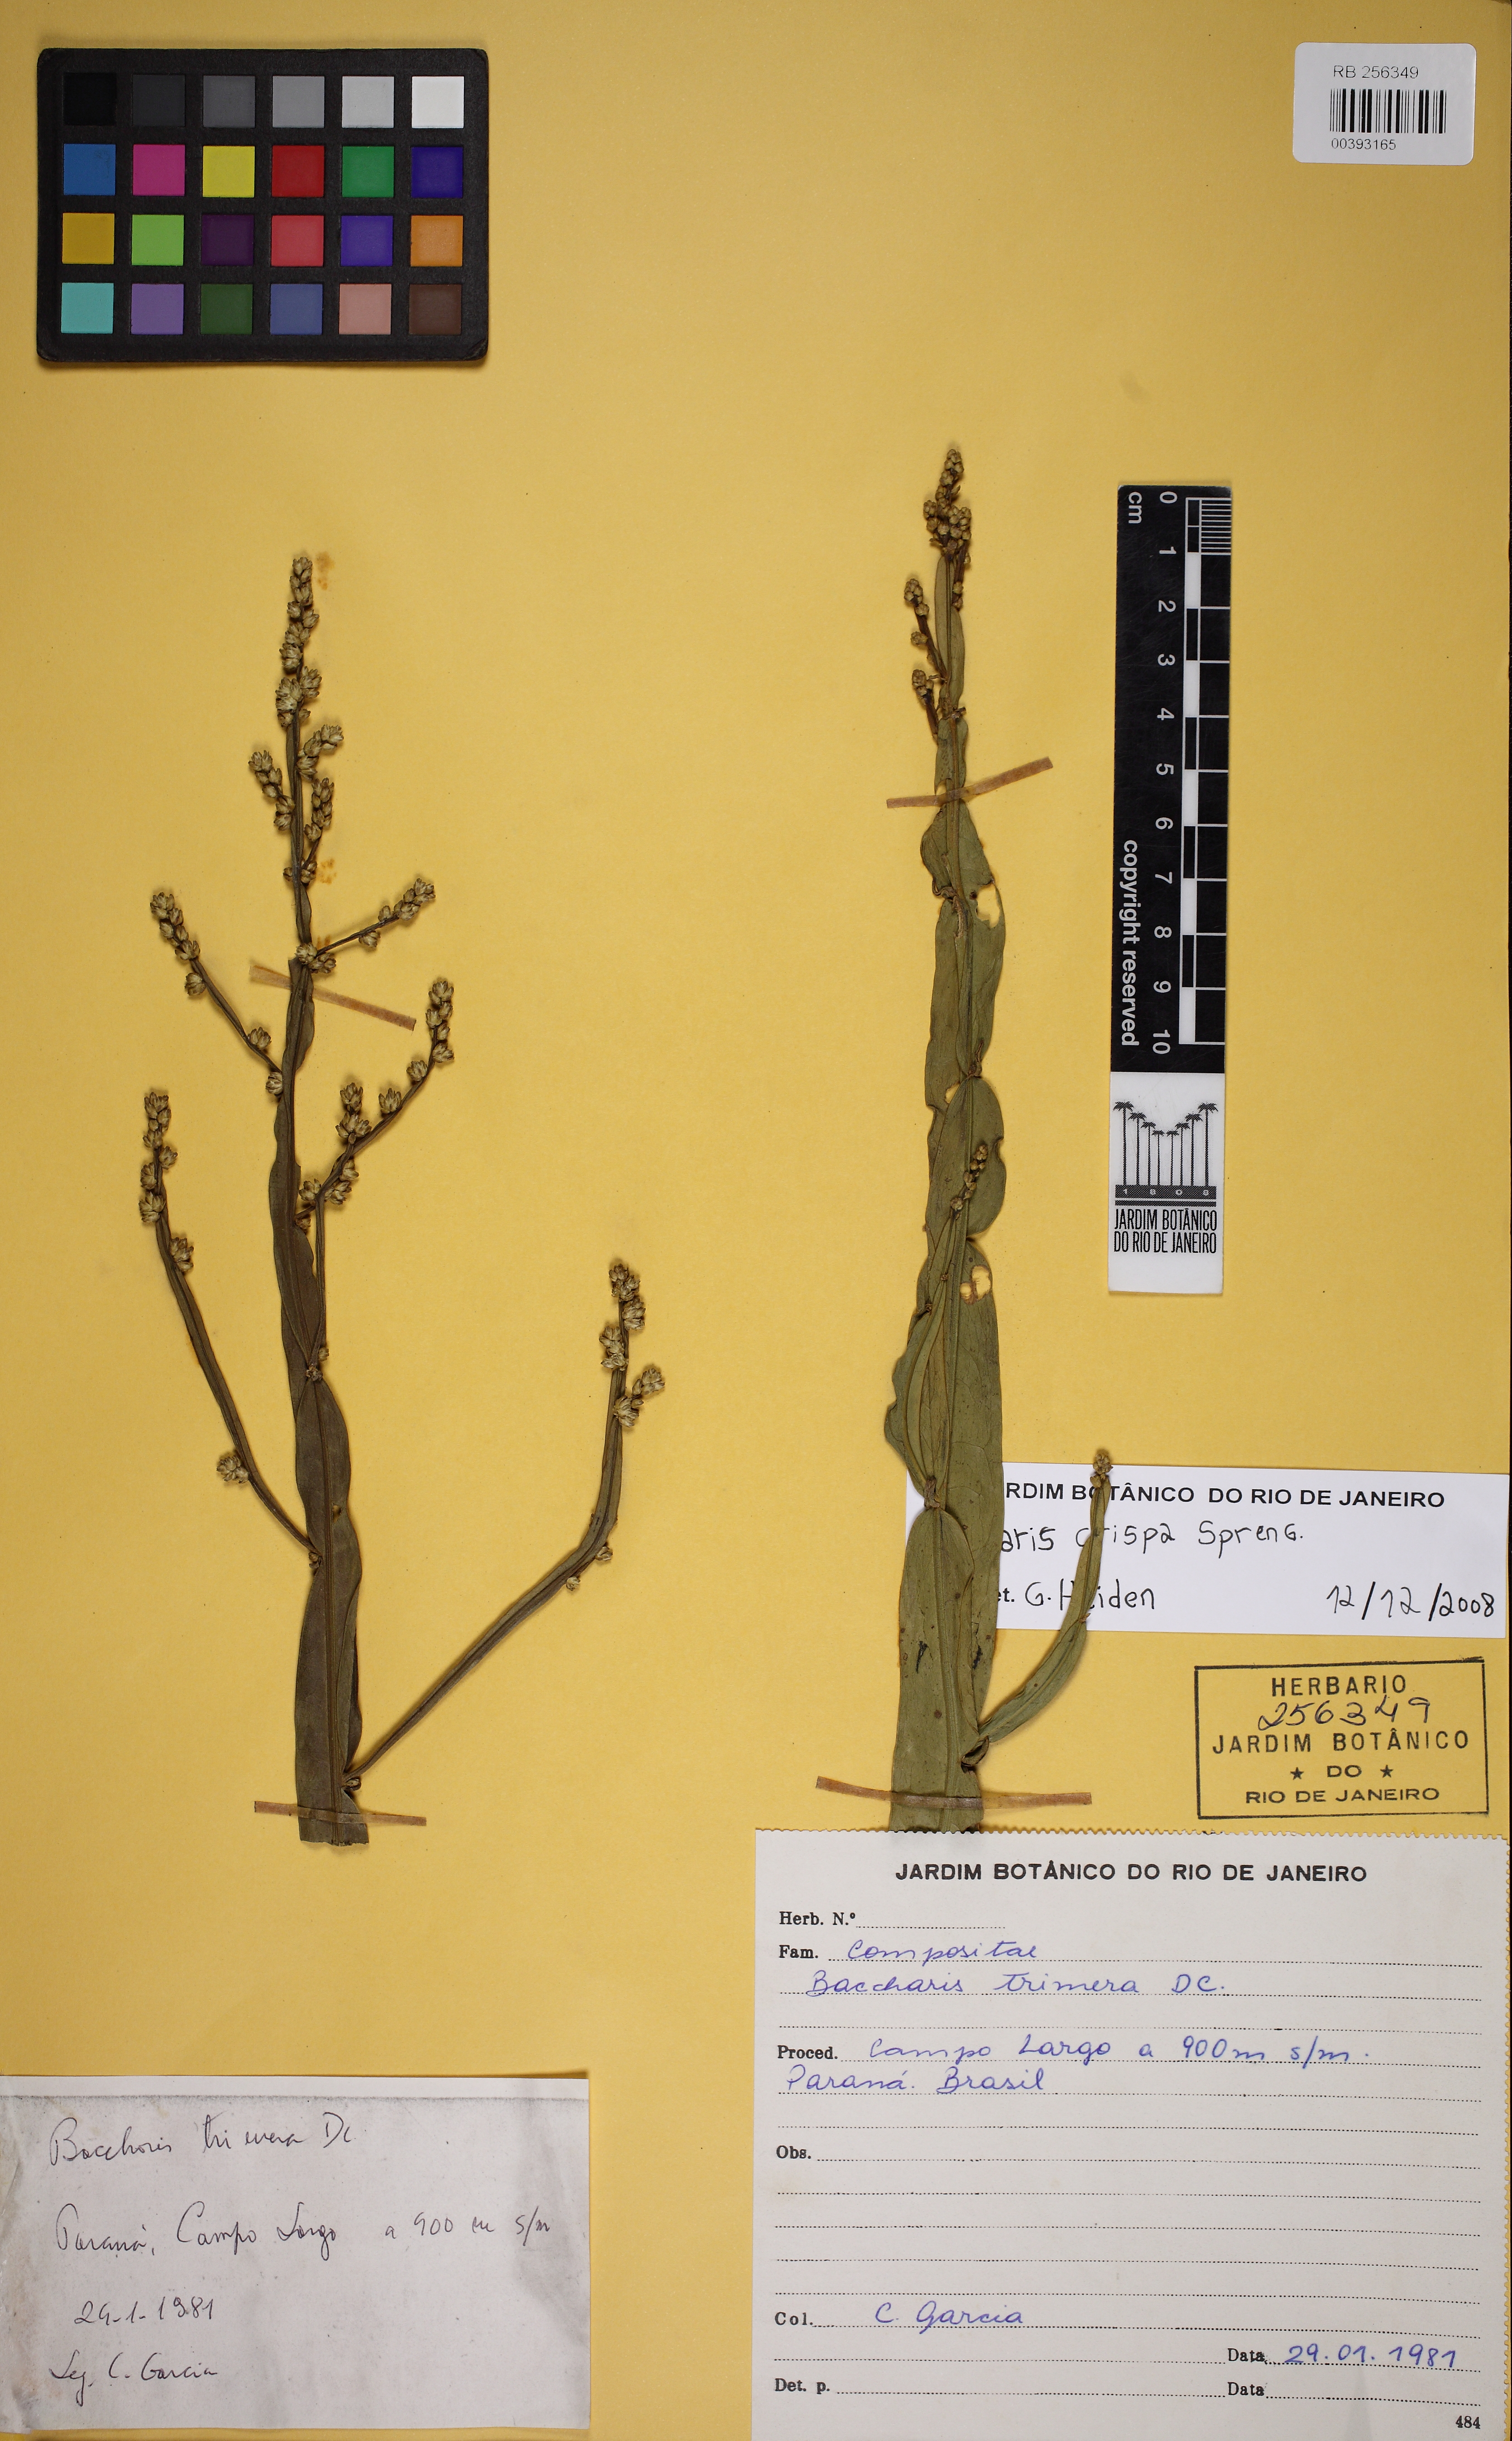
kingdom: Plantae
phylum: Tracheophyta
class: Magnoliopsida
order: Asterales
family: Asteraceae
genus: Baccharis
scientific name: Baccharis crispa
